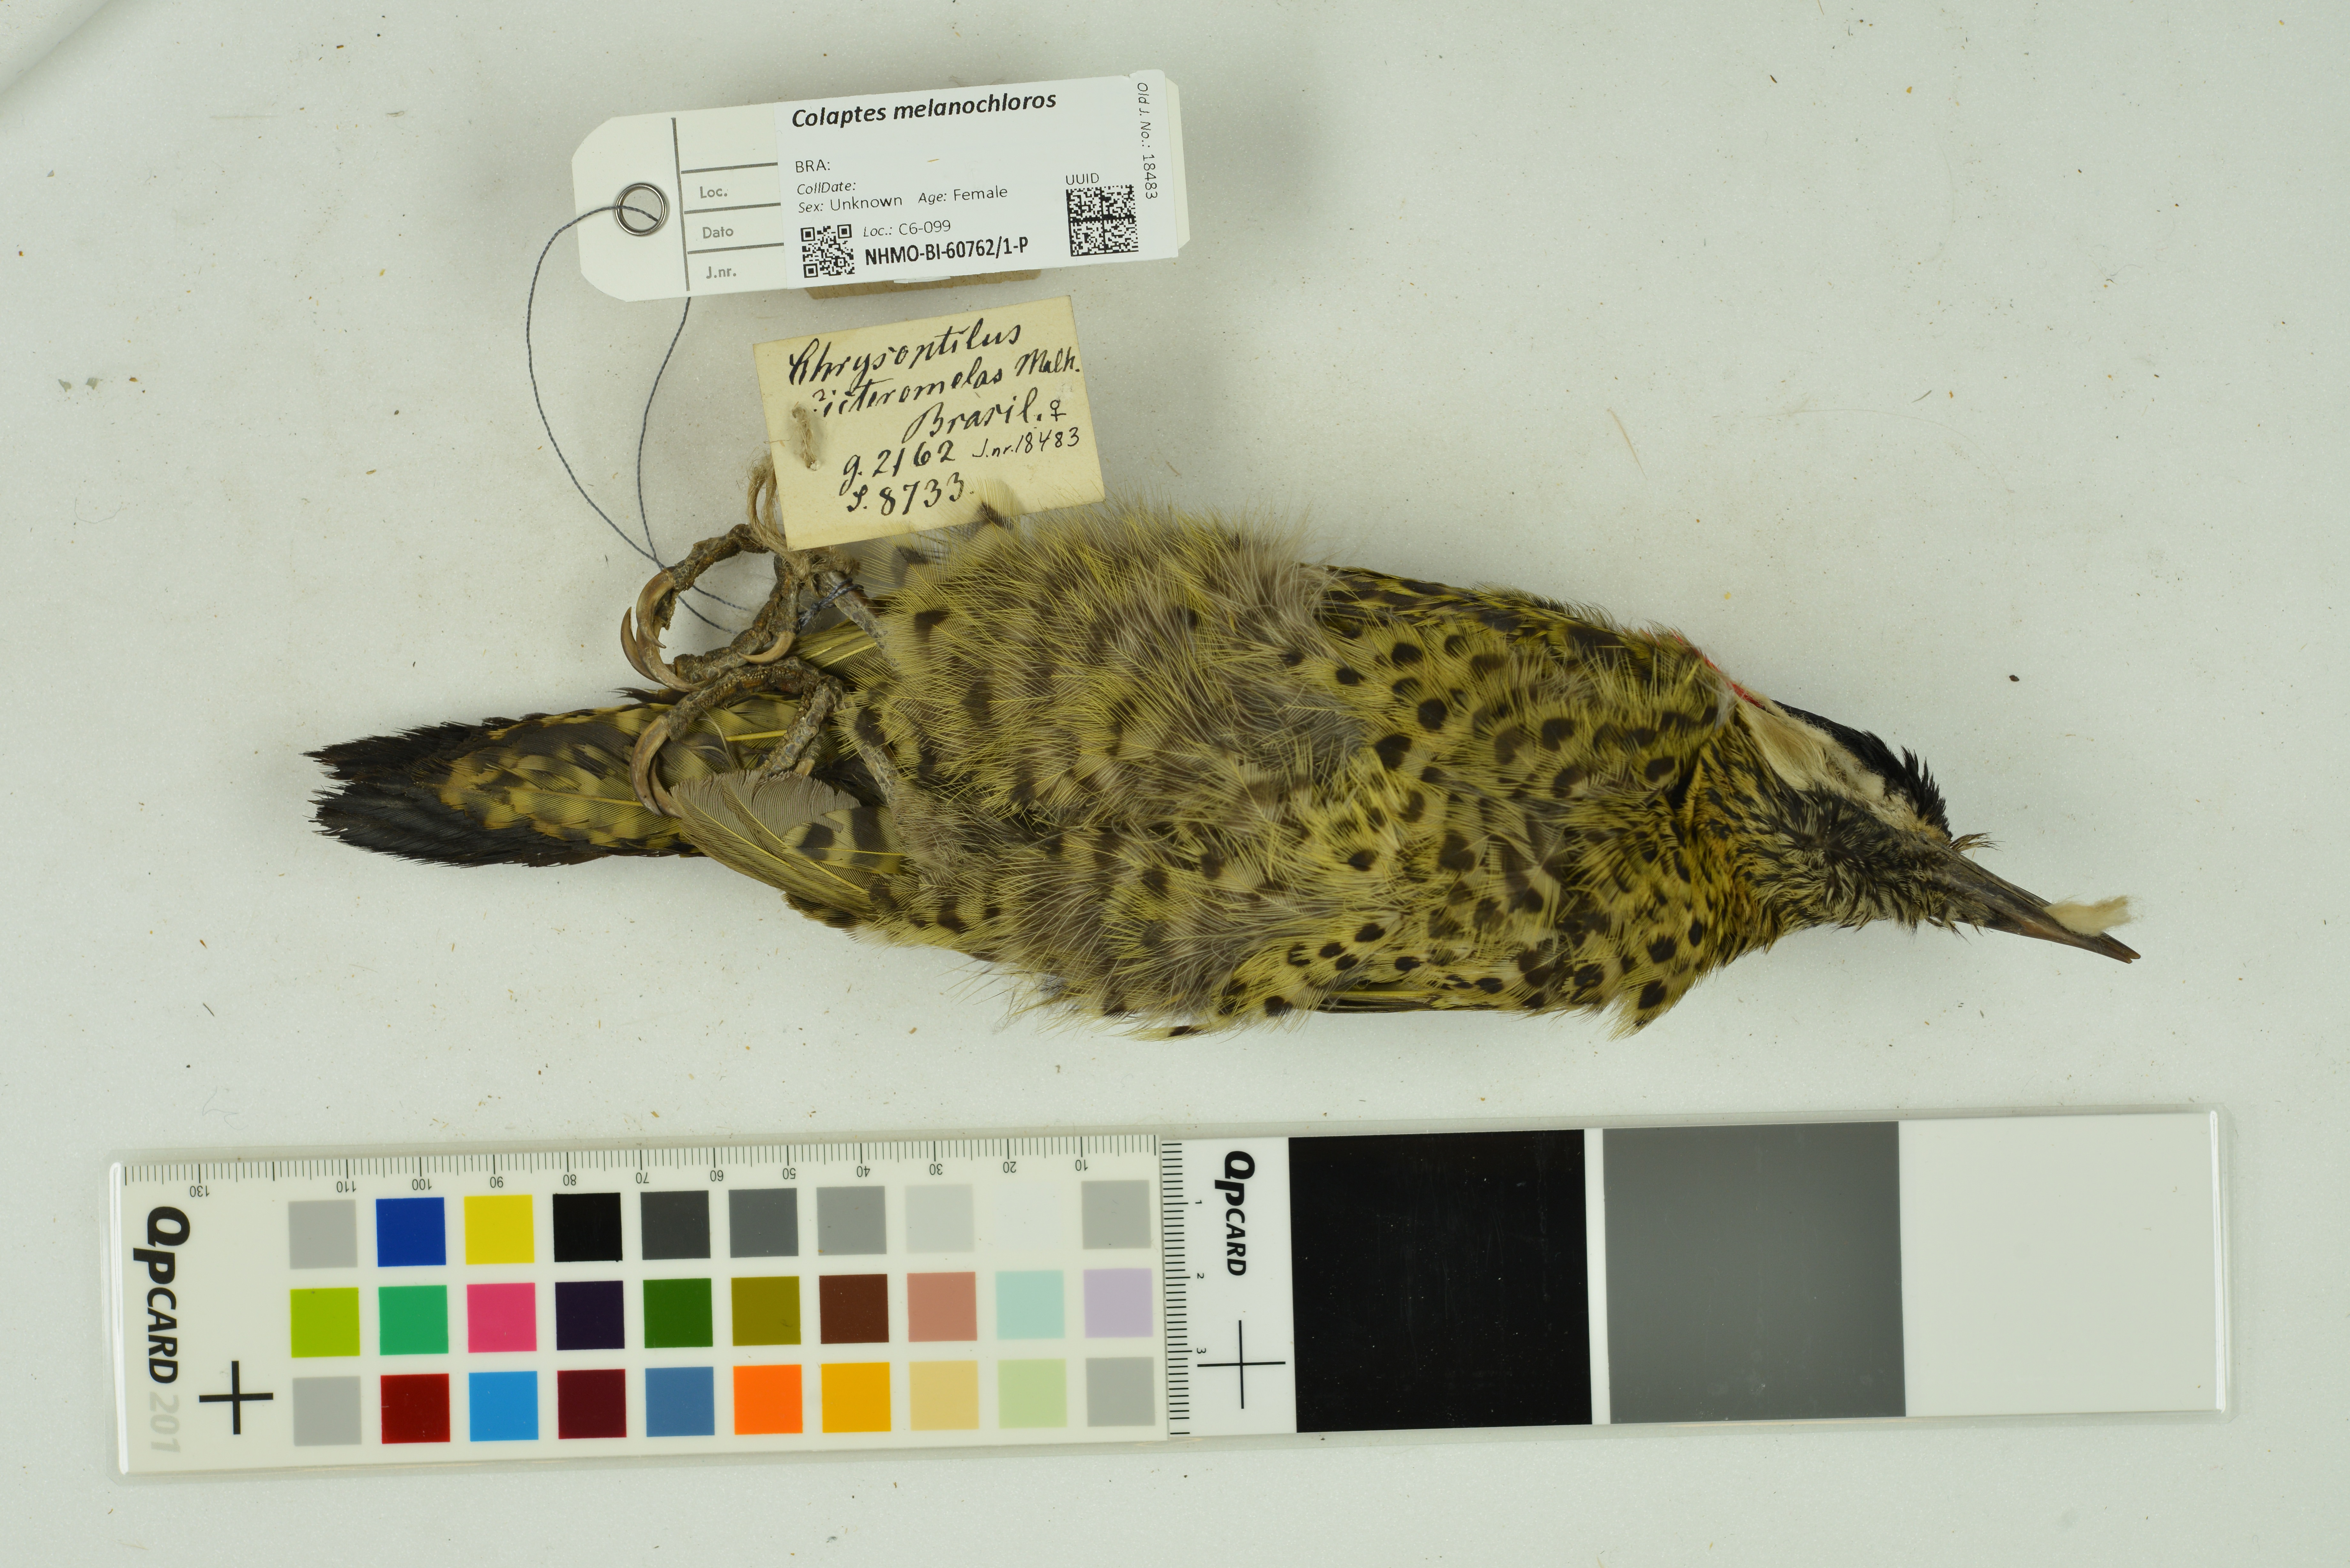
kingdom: Animalia
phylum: Chordata
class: Aves
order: Piciformes
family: Picidae
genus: Colaptes
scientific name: Colaptes melanochloros
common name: Green-barred woodpecker
